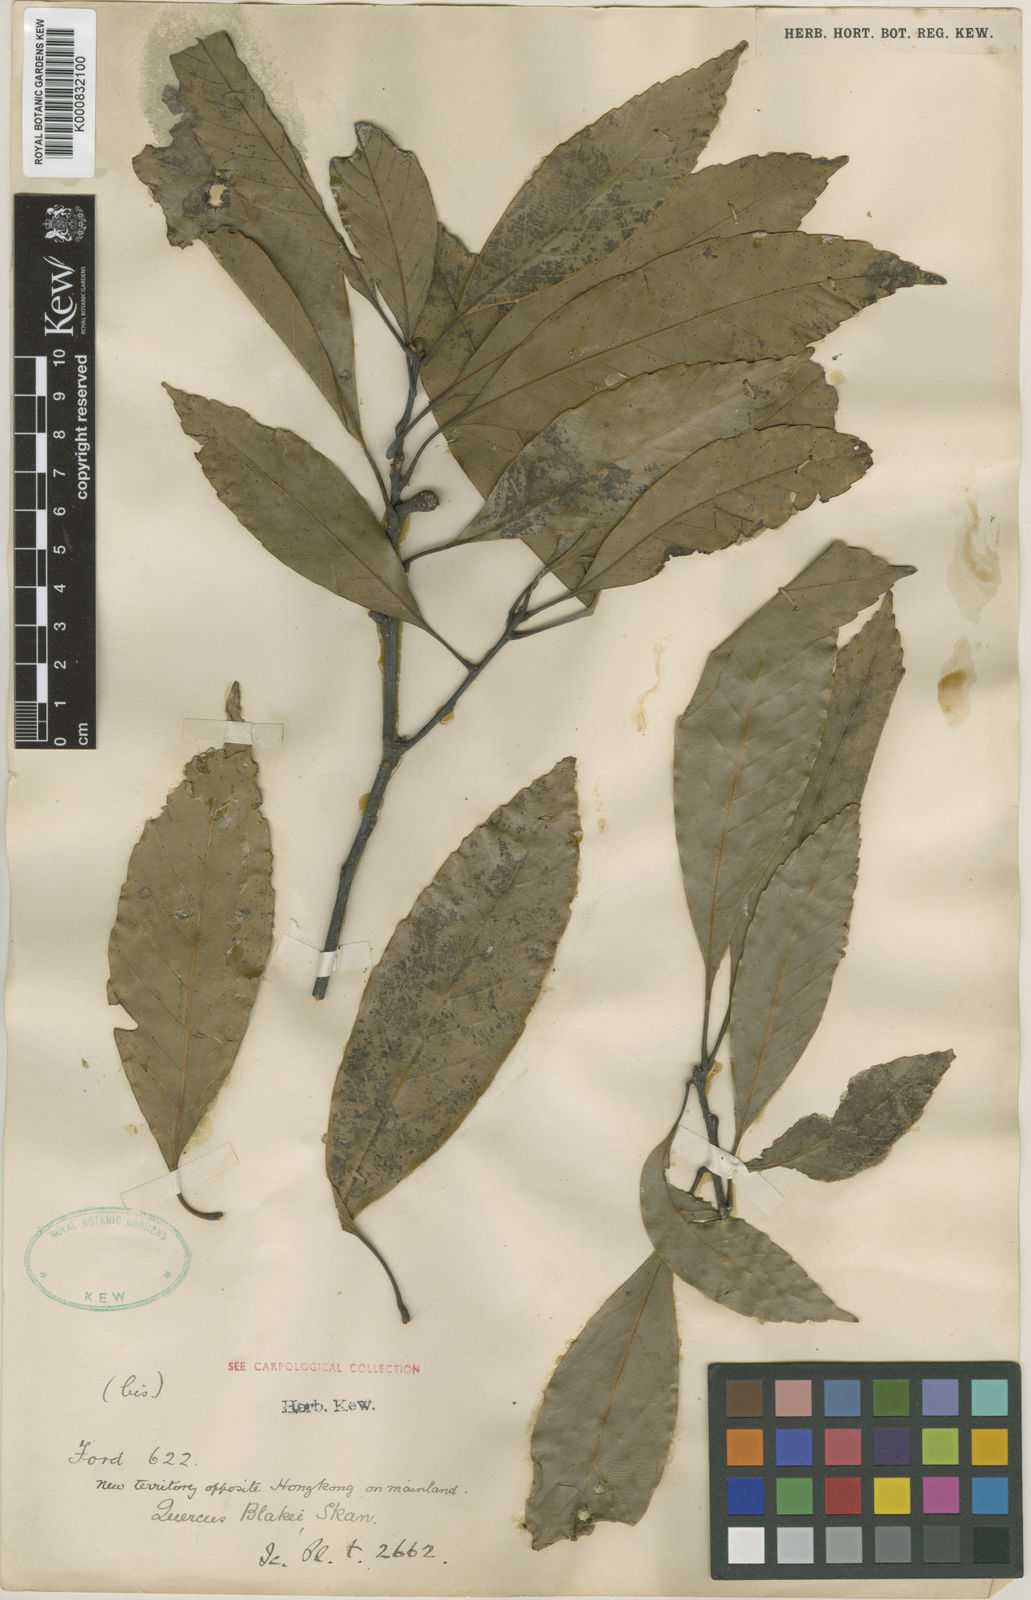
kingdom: Plantae
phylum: Tracheophyta
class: Magnoliopsida
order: Fagales
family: Fagaceae
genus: Quercus
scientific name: Quercus blakei
